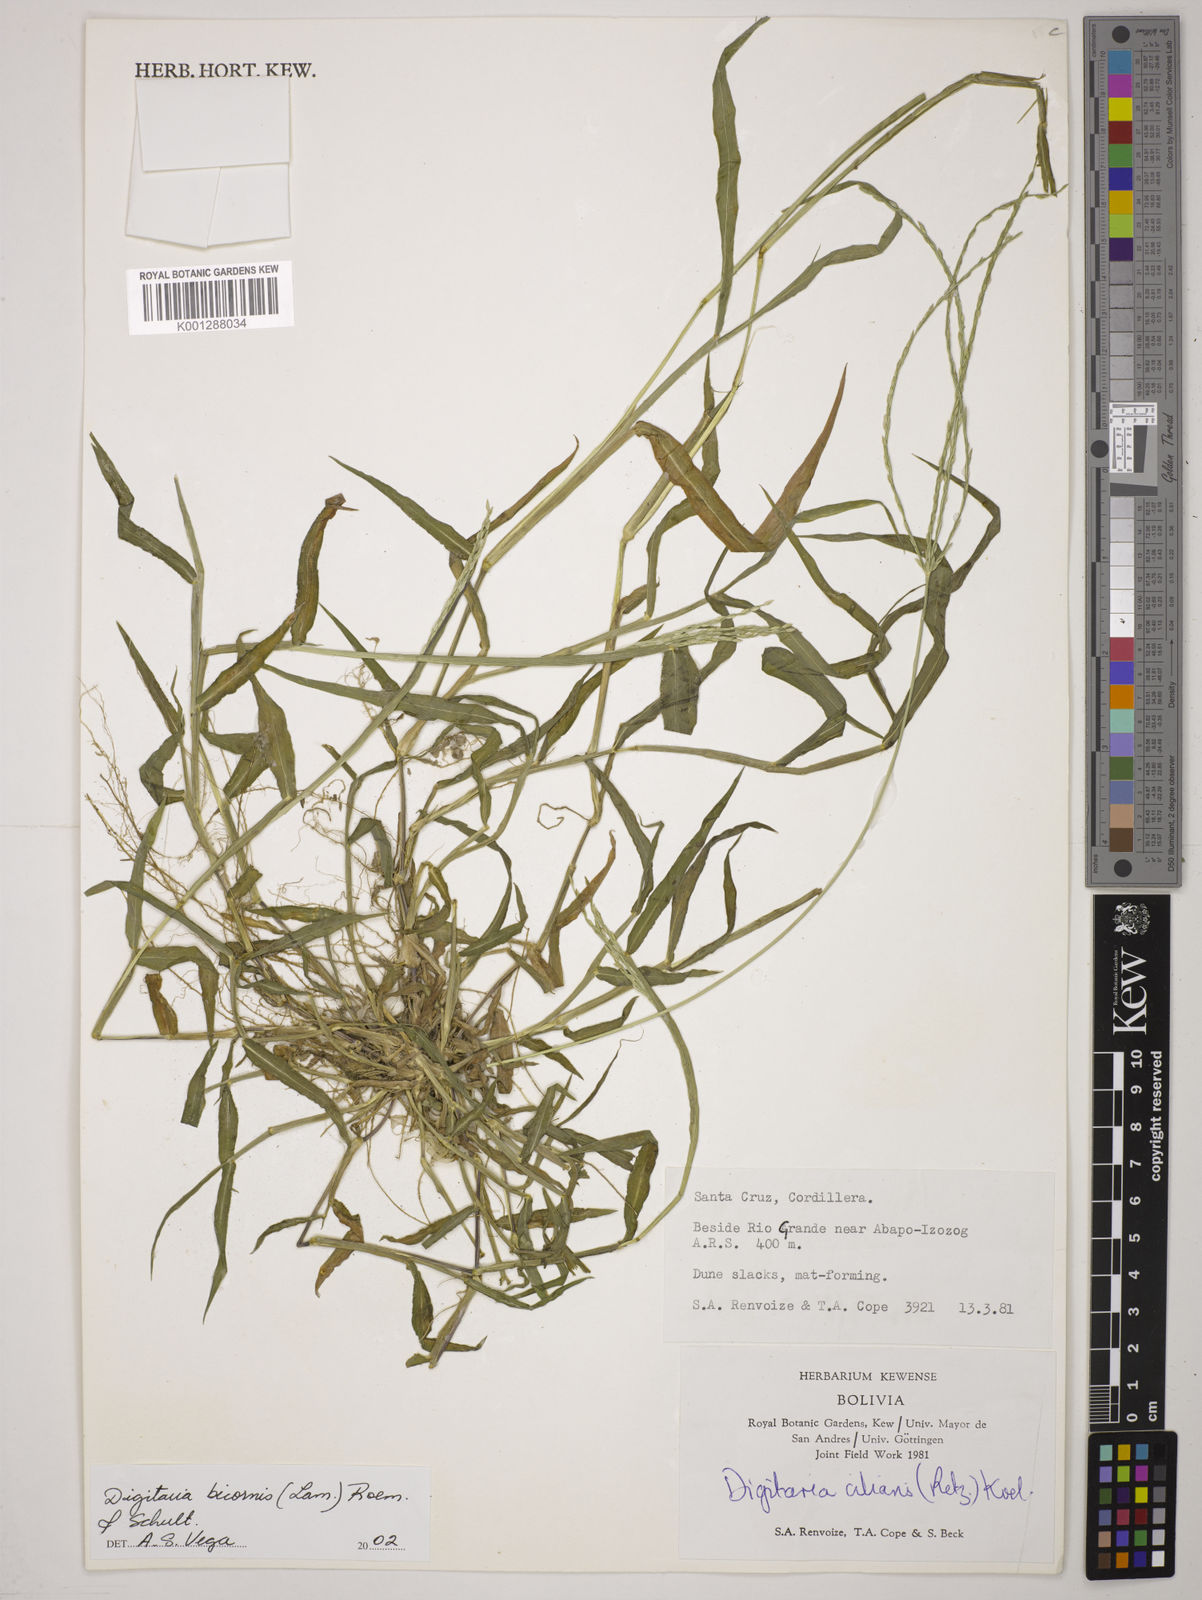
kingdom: Plantae
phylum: Tracheophyta
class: Liliopsida
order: Poales
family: Poaceae
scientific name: Poaceae
